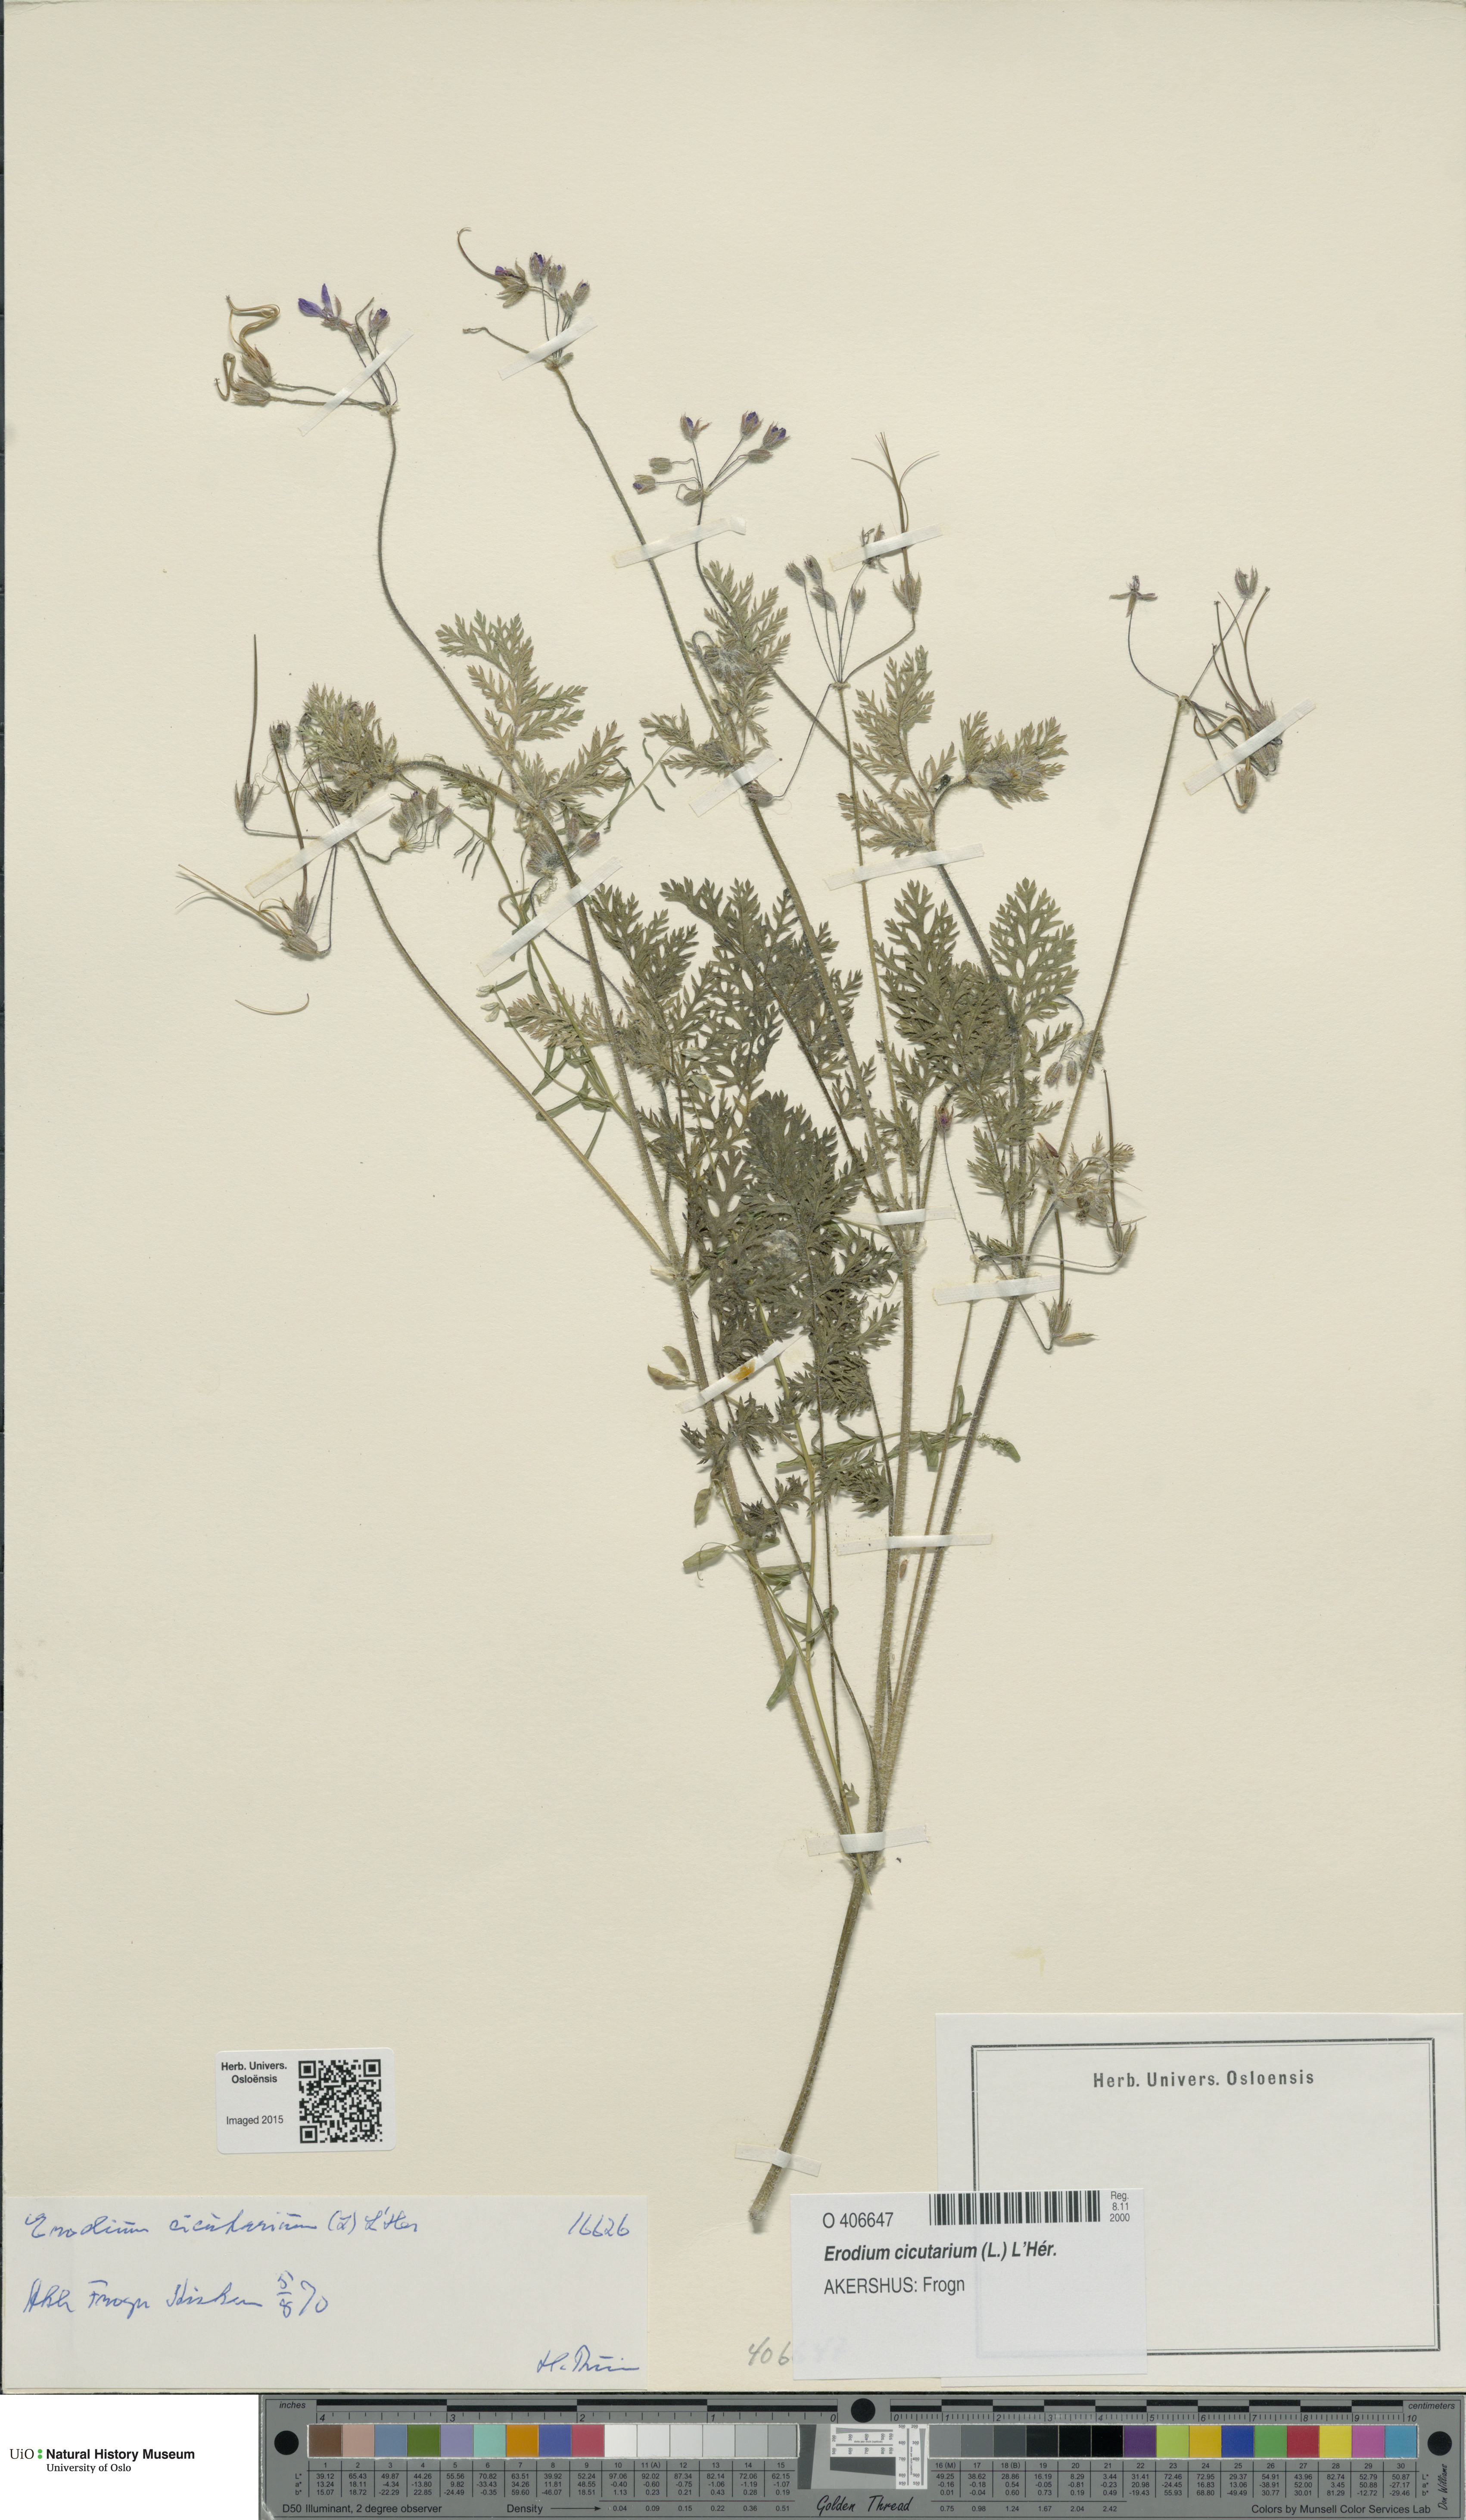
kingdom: Plantae
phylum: Tracheophyta
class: Magnoliopsida
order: Geraniales
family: Geraniaceae
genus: Erodium
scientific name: Erodium cicutarium
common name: Common stork's-bill
